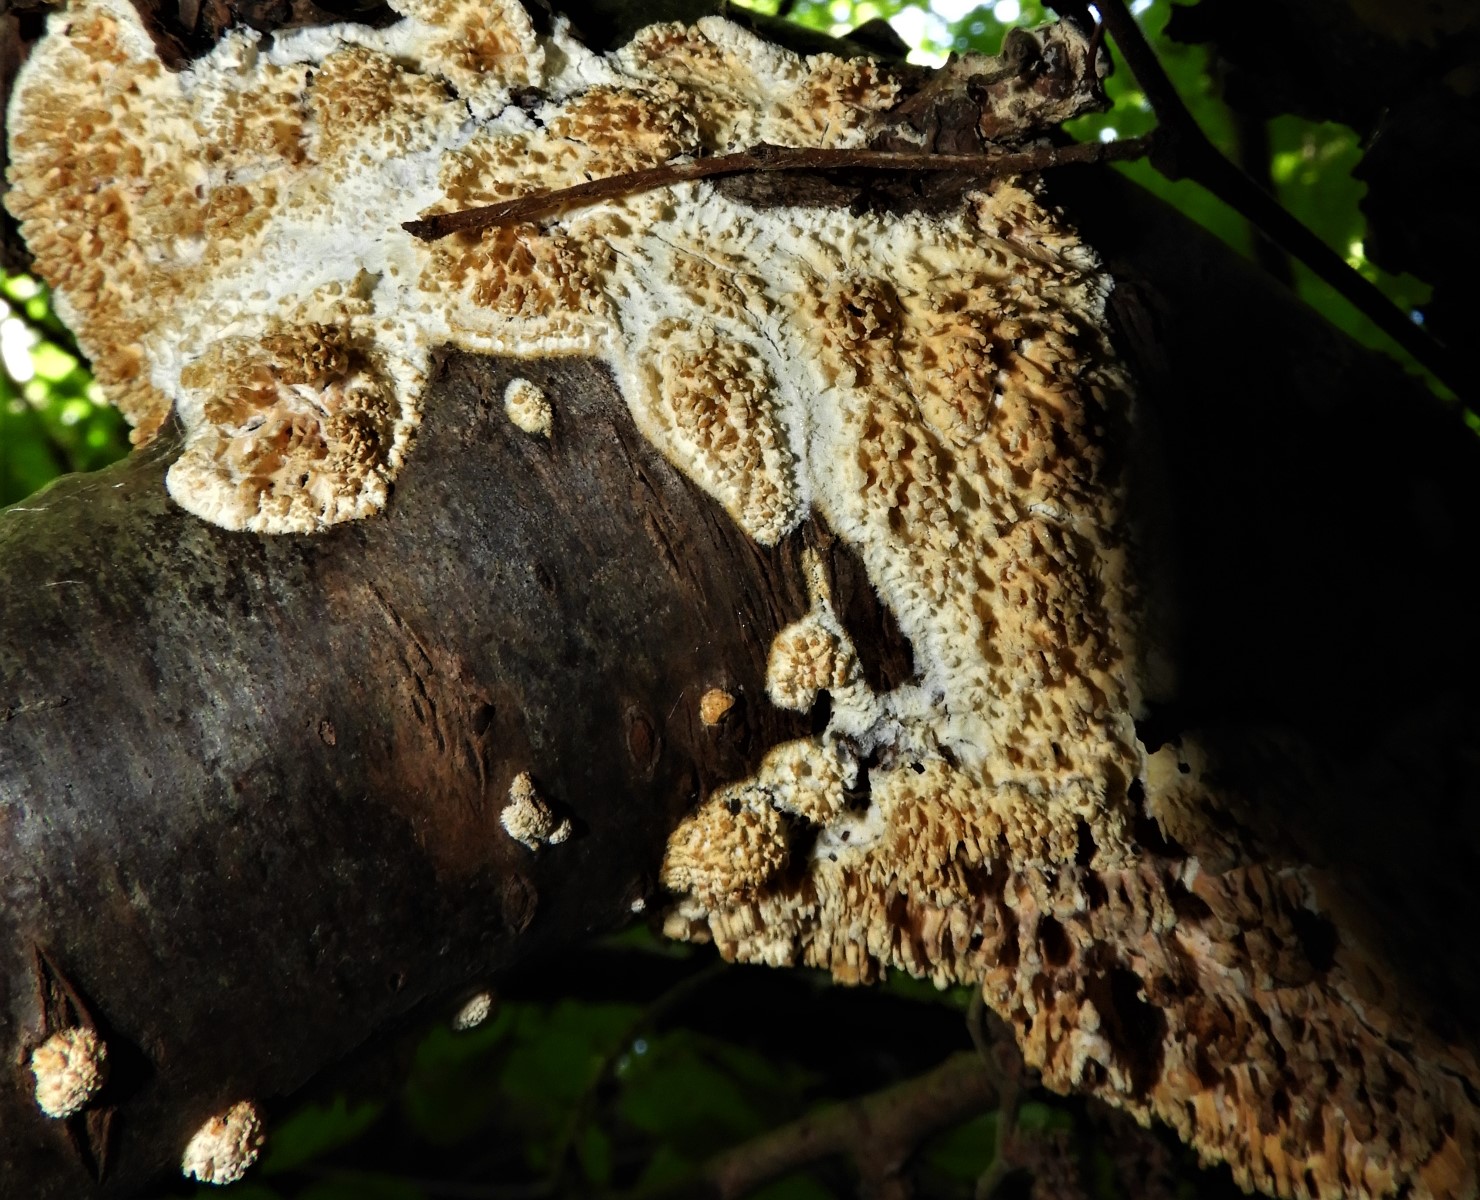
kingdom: Fungi
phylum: Basidiomycota
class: Agaricomycetes
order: Hymenochaetales
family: Schizoporaceae
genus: Xylodon
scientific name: Xylodon radula
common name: grovtandet kalkskind
